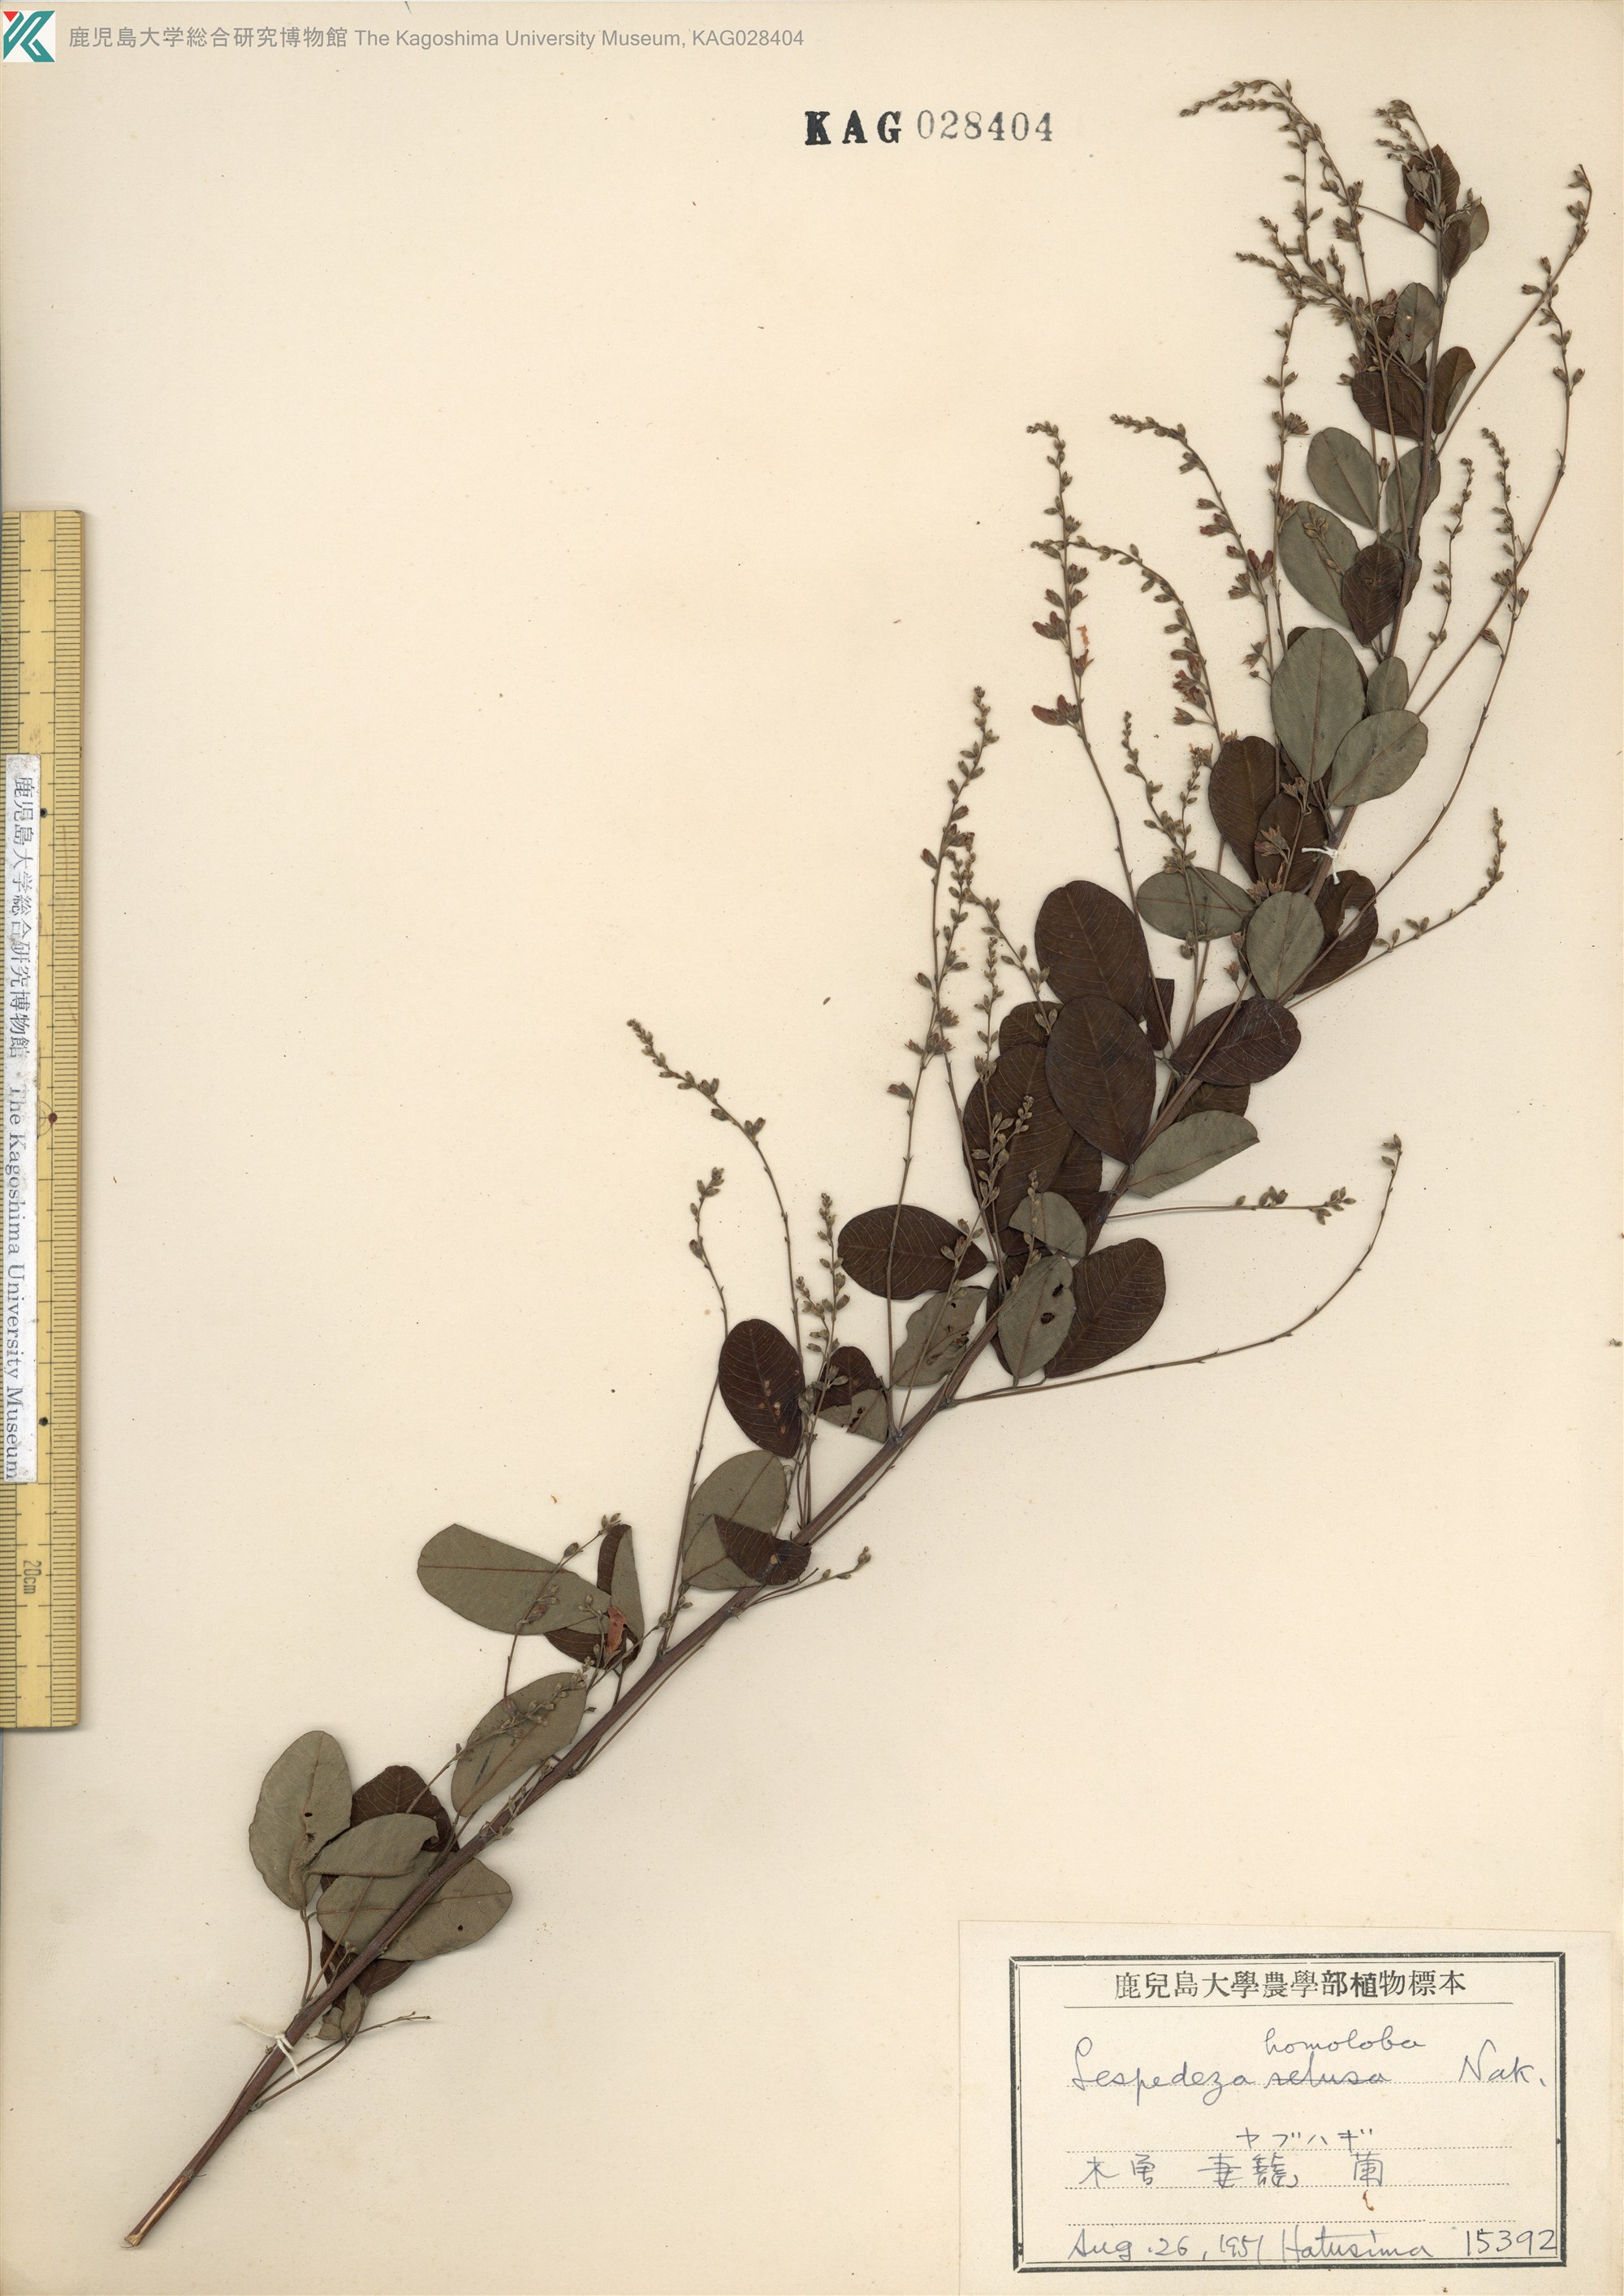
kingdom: Plantae
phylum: Tracheophyta
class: Magnoliopsida
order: Fabales
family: Fabaceae
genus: Lespedeza
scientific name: Lespedeza homoloba
